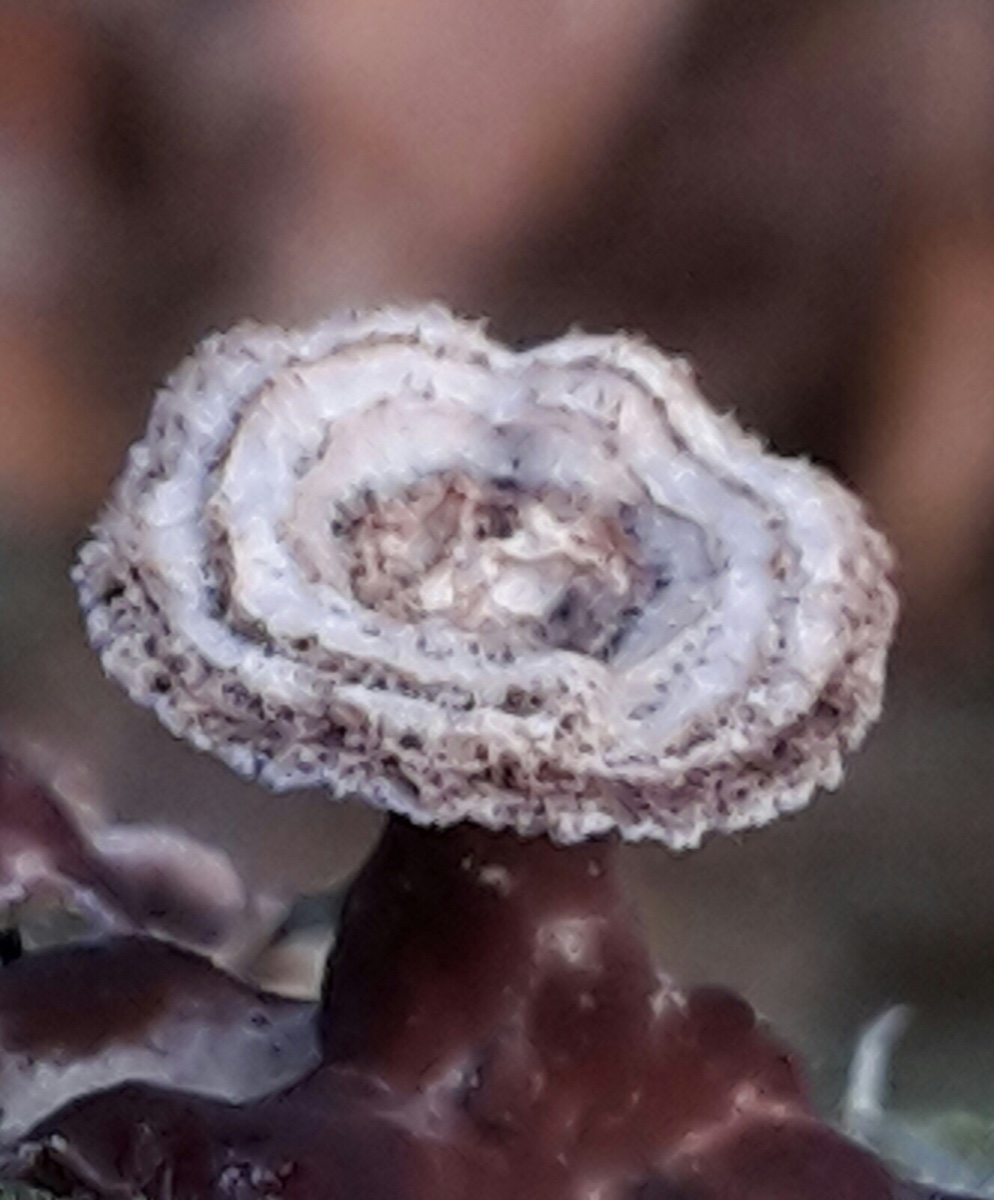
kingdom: Fungi
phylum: Basidiomycota
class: Agaricomycetes
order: Agaricales
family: Cyphellaceae
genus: Chondrostereum
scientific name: Chondrostereum purpureum
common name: purpurlædersvamp
